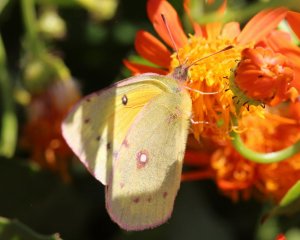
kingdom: Animalia
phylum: Arthropoda
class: Insecta
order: Lepidoptera
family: Pieridae
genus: Colias
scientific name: Colias eurytheme
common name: Orange Sulphur
